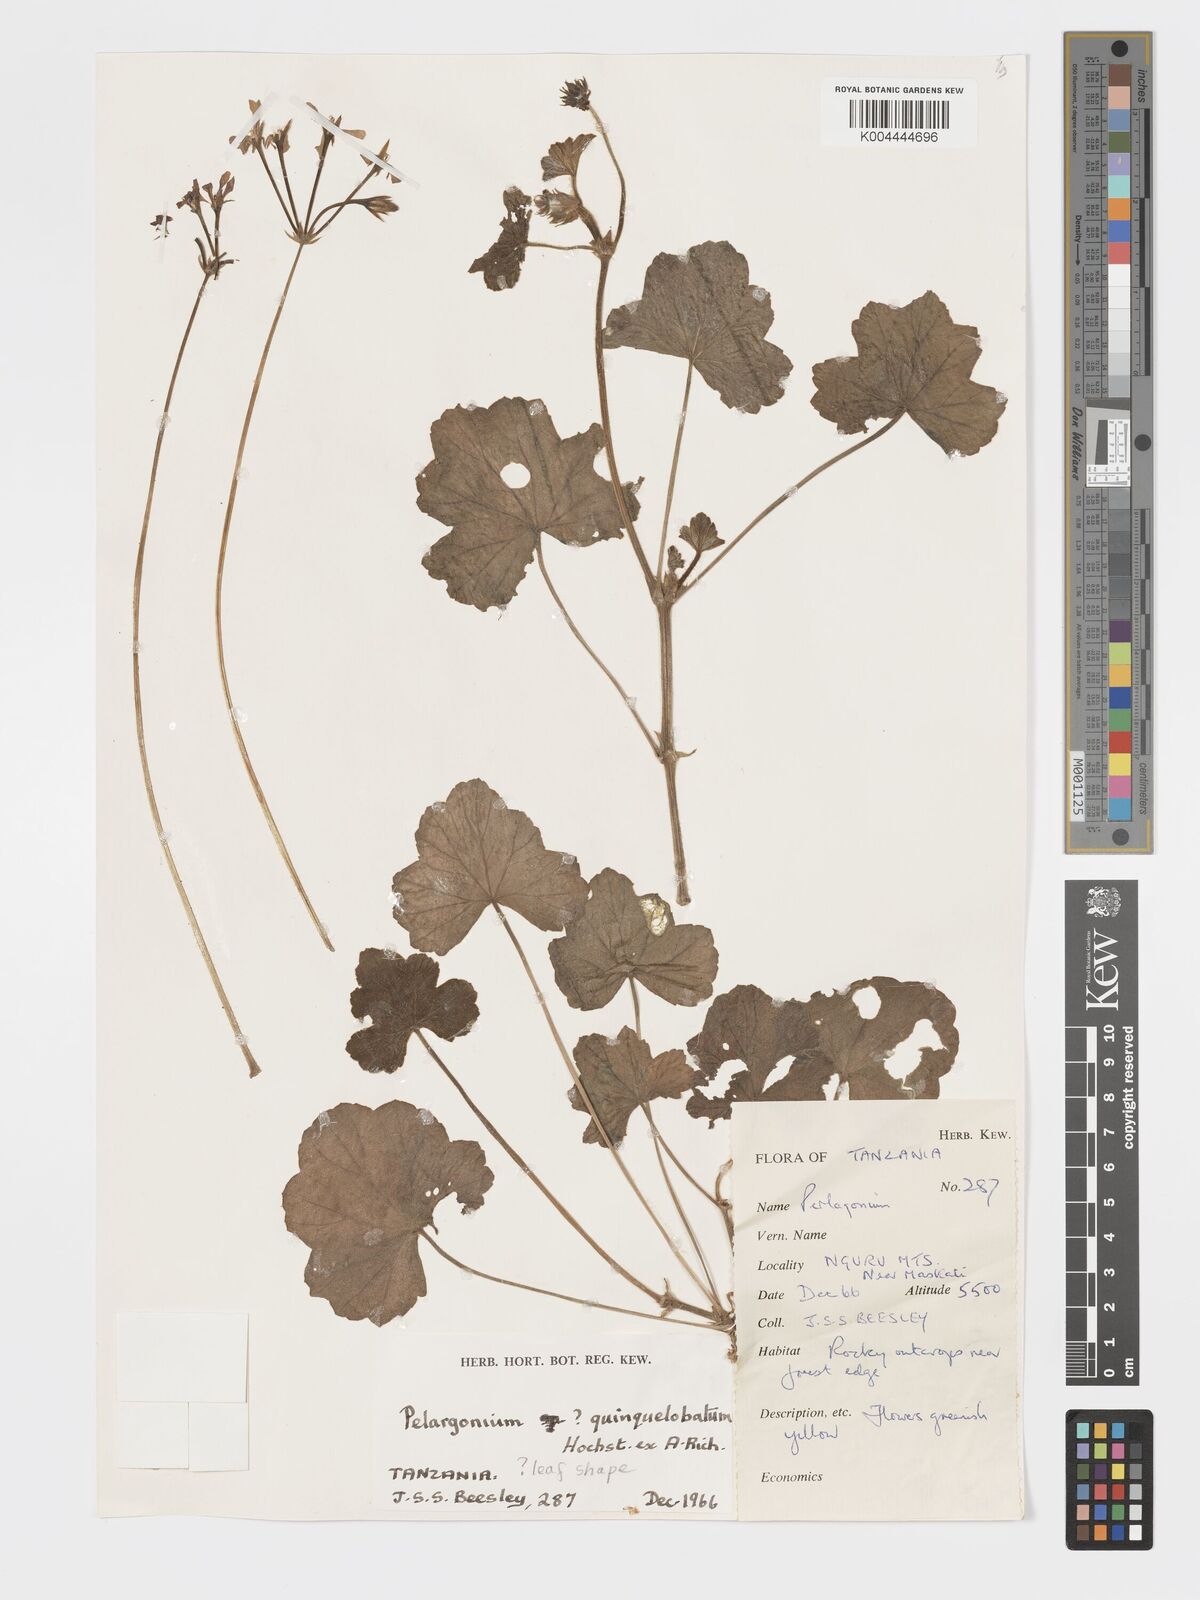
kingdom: Plantae
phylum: Tracheophyta
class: Magnoliopsida
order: Geraniales
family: Geraniaceae
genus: Pelargonium
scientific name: Pelargonium quinquelobatum
